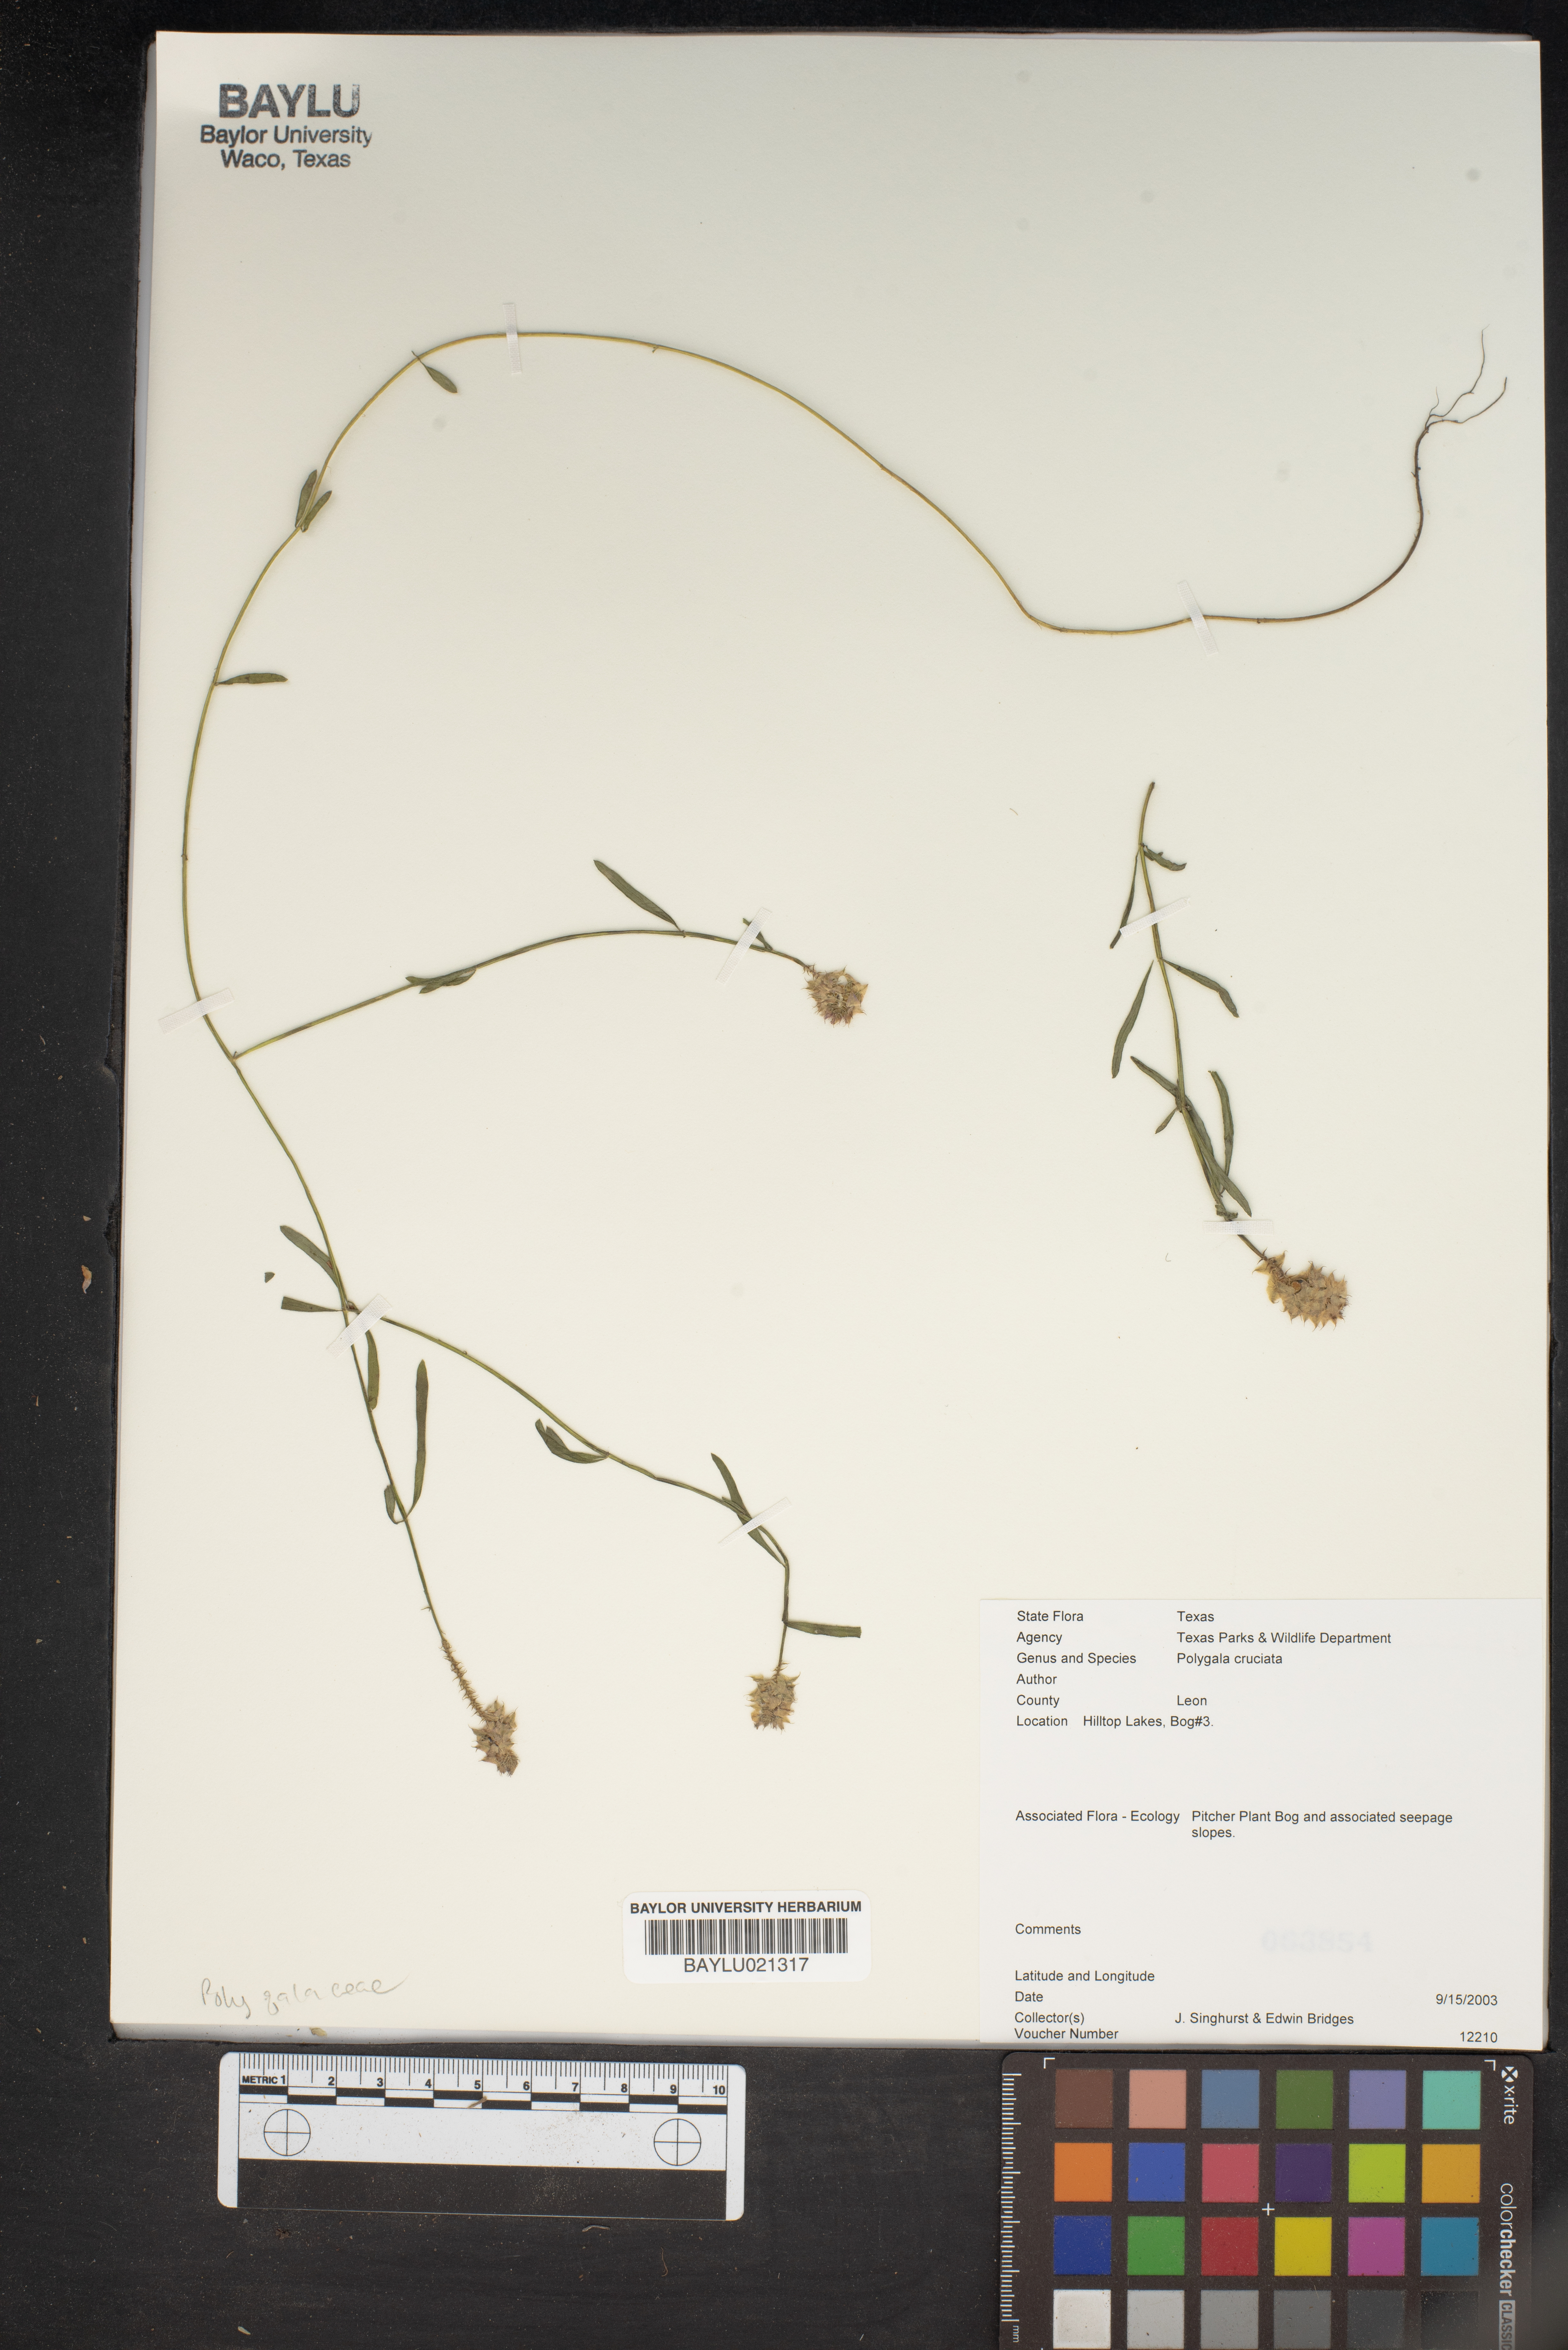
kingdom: Plantae
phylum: Tracheophyta
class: Magnoliopsida
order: Fabales
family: Polygalaceae
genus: Polygala
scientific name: Polygala cruciata
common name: Drumheads
